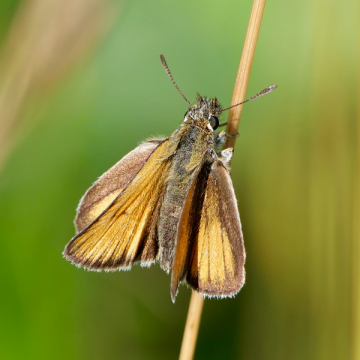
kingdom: Animalia
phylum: Arthropoda
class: Insecta
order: Lepidoptera
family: Hesperiidae
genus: Thymelicus
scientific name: Thymelicus lineola
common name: European Skipper
